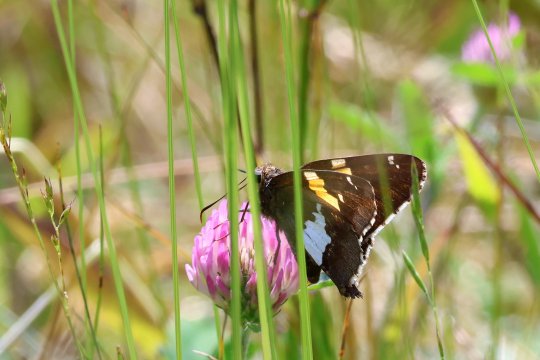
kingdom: Animalia
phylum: Arthropoda
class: Insecta
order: Lepidoptera
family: Hesperiidae
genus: Epargyreus
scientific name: Epargyreus clarus
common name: Silver-spotted Skipper
